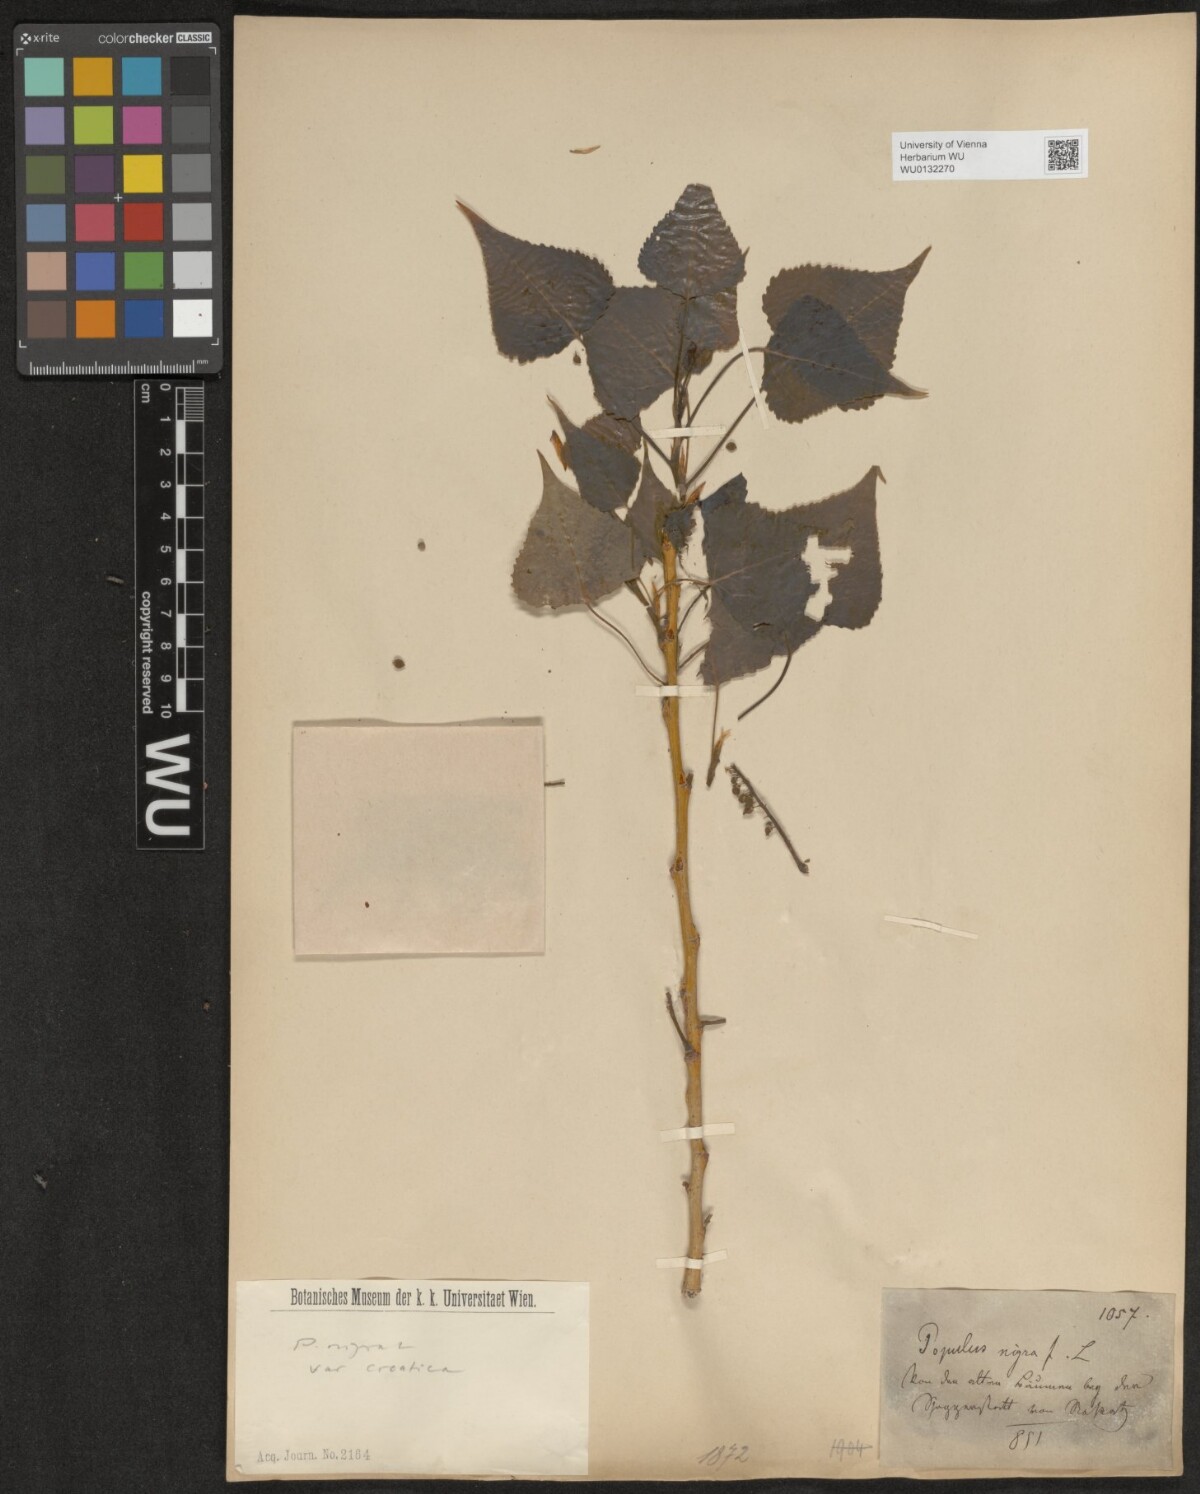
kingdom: Plantae
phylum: Tracheophyta
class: Magnoliopsida
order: Malpighiales
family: Salicaceae
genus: Populus
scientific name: Populus nigra
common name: Black poplar
